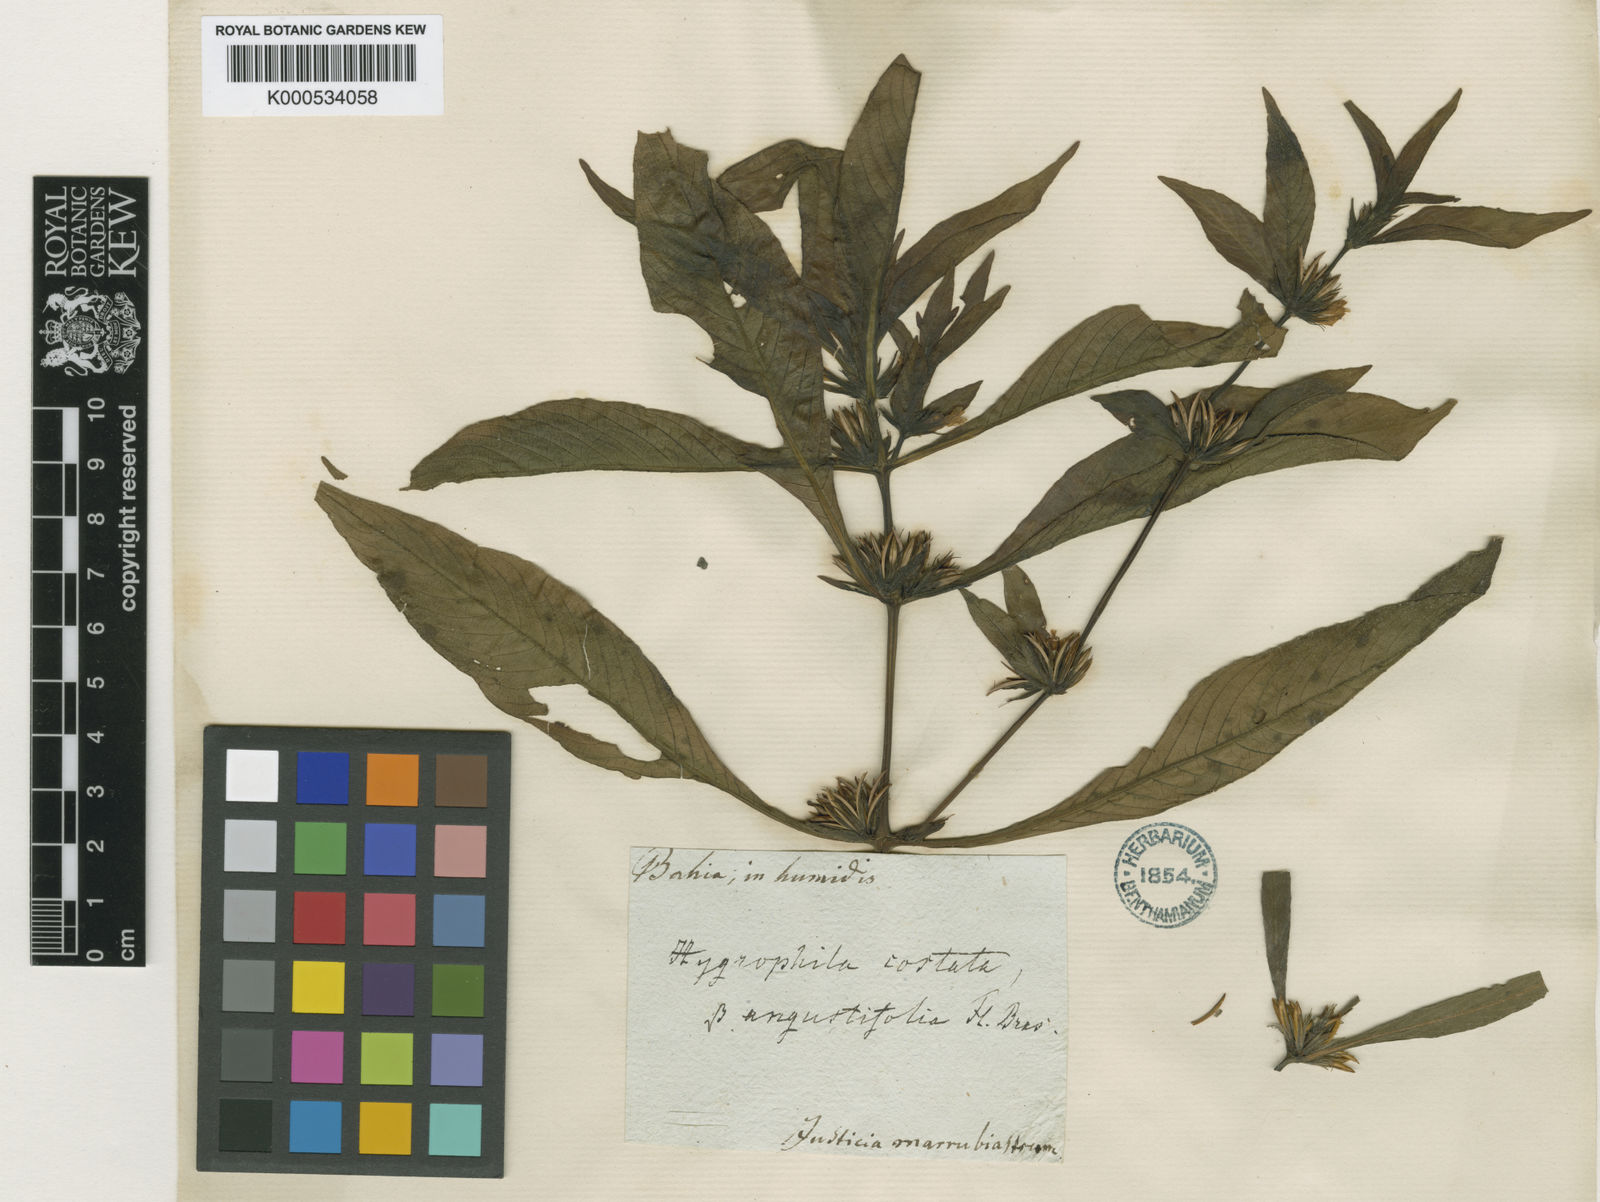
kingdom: Plantae
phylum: Tracheophyta
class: Magnoliopsida
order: Lamiales
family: Acanthaceae
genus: Hygrophila
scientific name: Hygrophila costata
